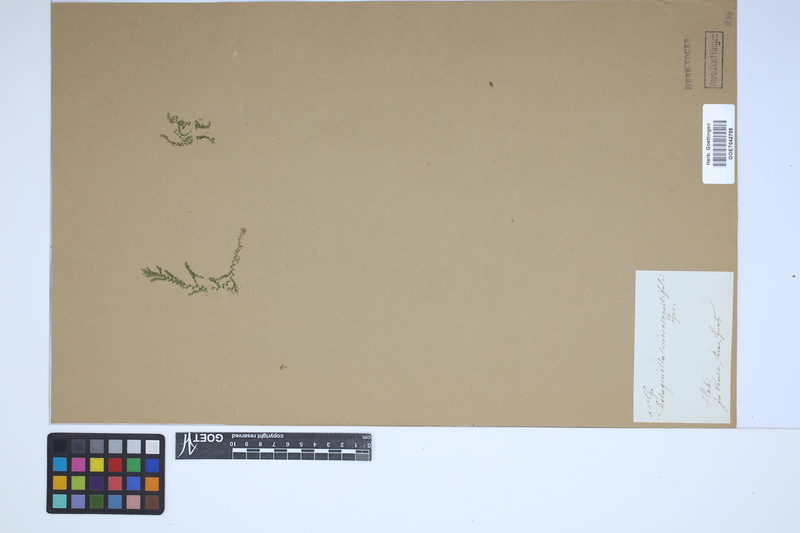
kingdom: Plantae
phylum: Tracheophyta
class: Lycopodiopsida
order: Selaginellales
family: Selaginellaceae
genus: Selaginella
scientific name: Selaginella novae-hollandiae
